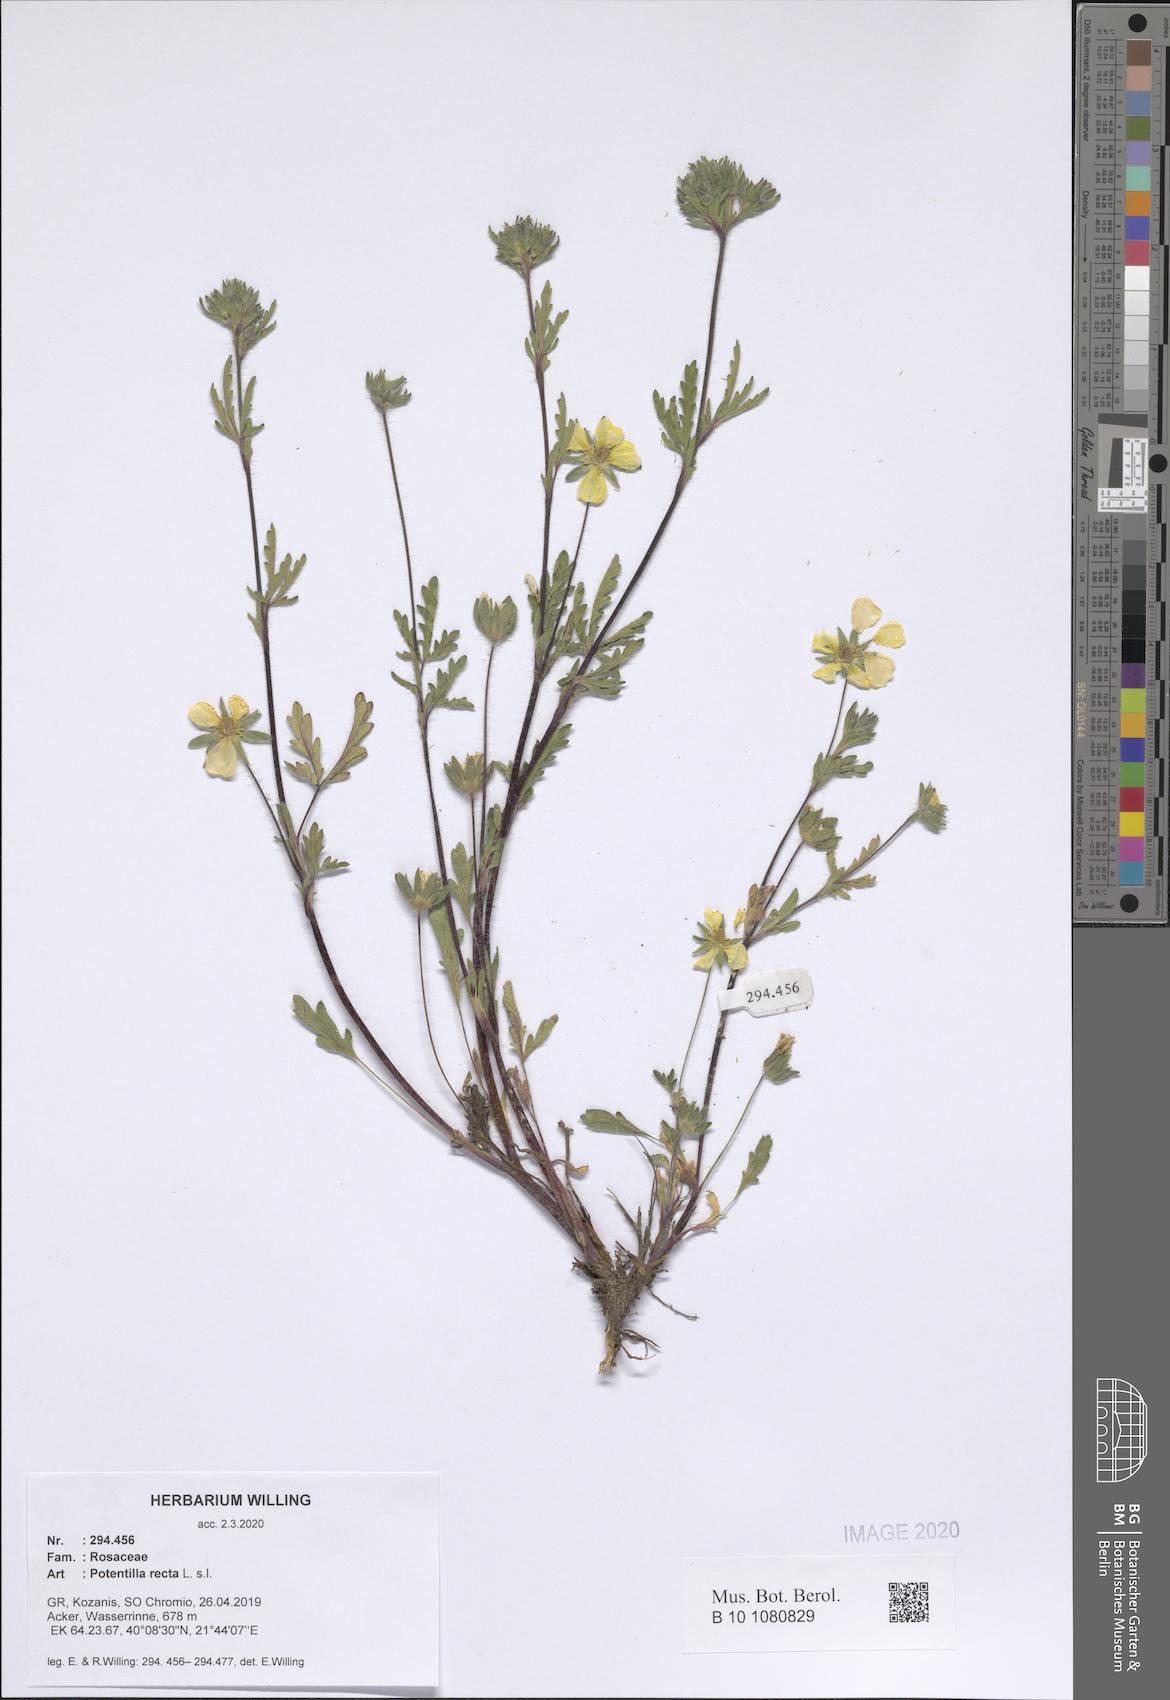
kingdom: Plantae
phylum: Tracheophyta
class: Magnoliopsida
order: Rosales
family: Rosaceae
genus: Potentilla
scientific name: Potentilla recta
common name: Sulphur cinquefoil
